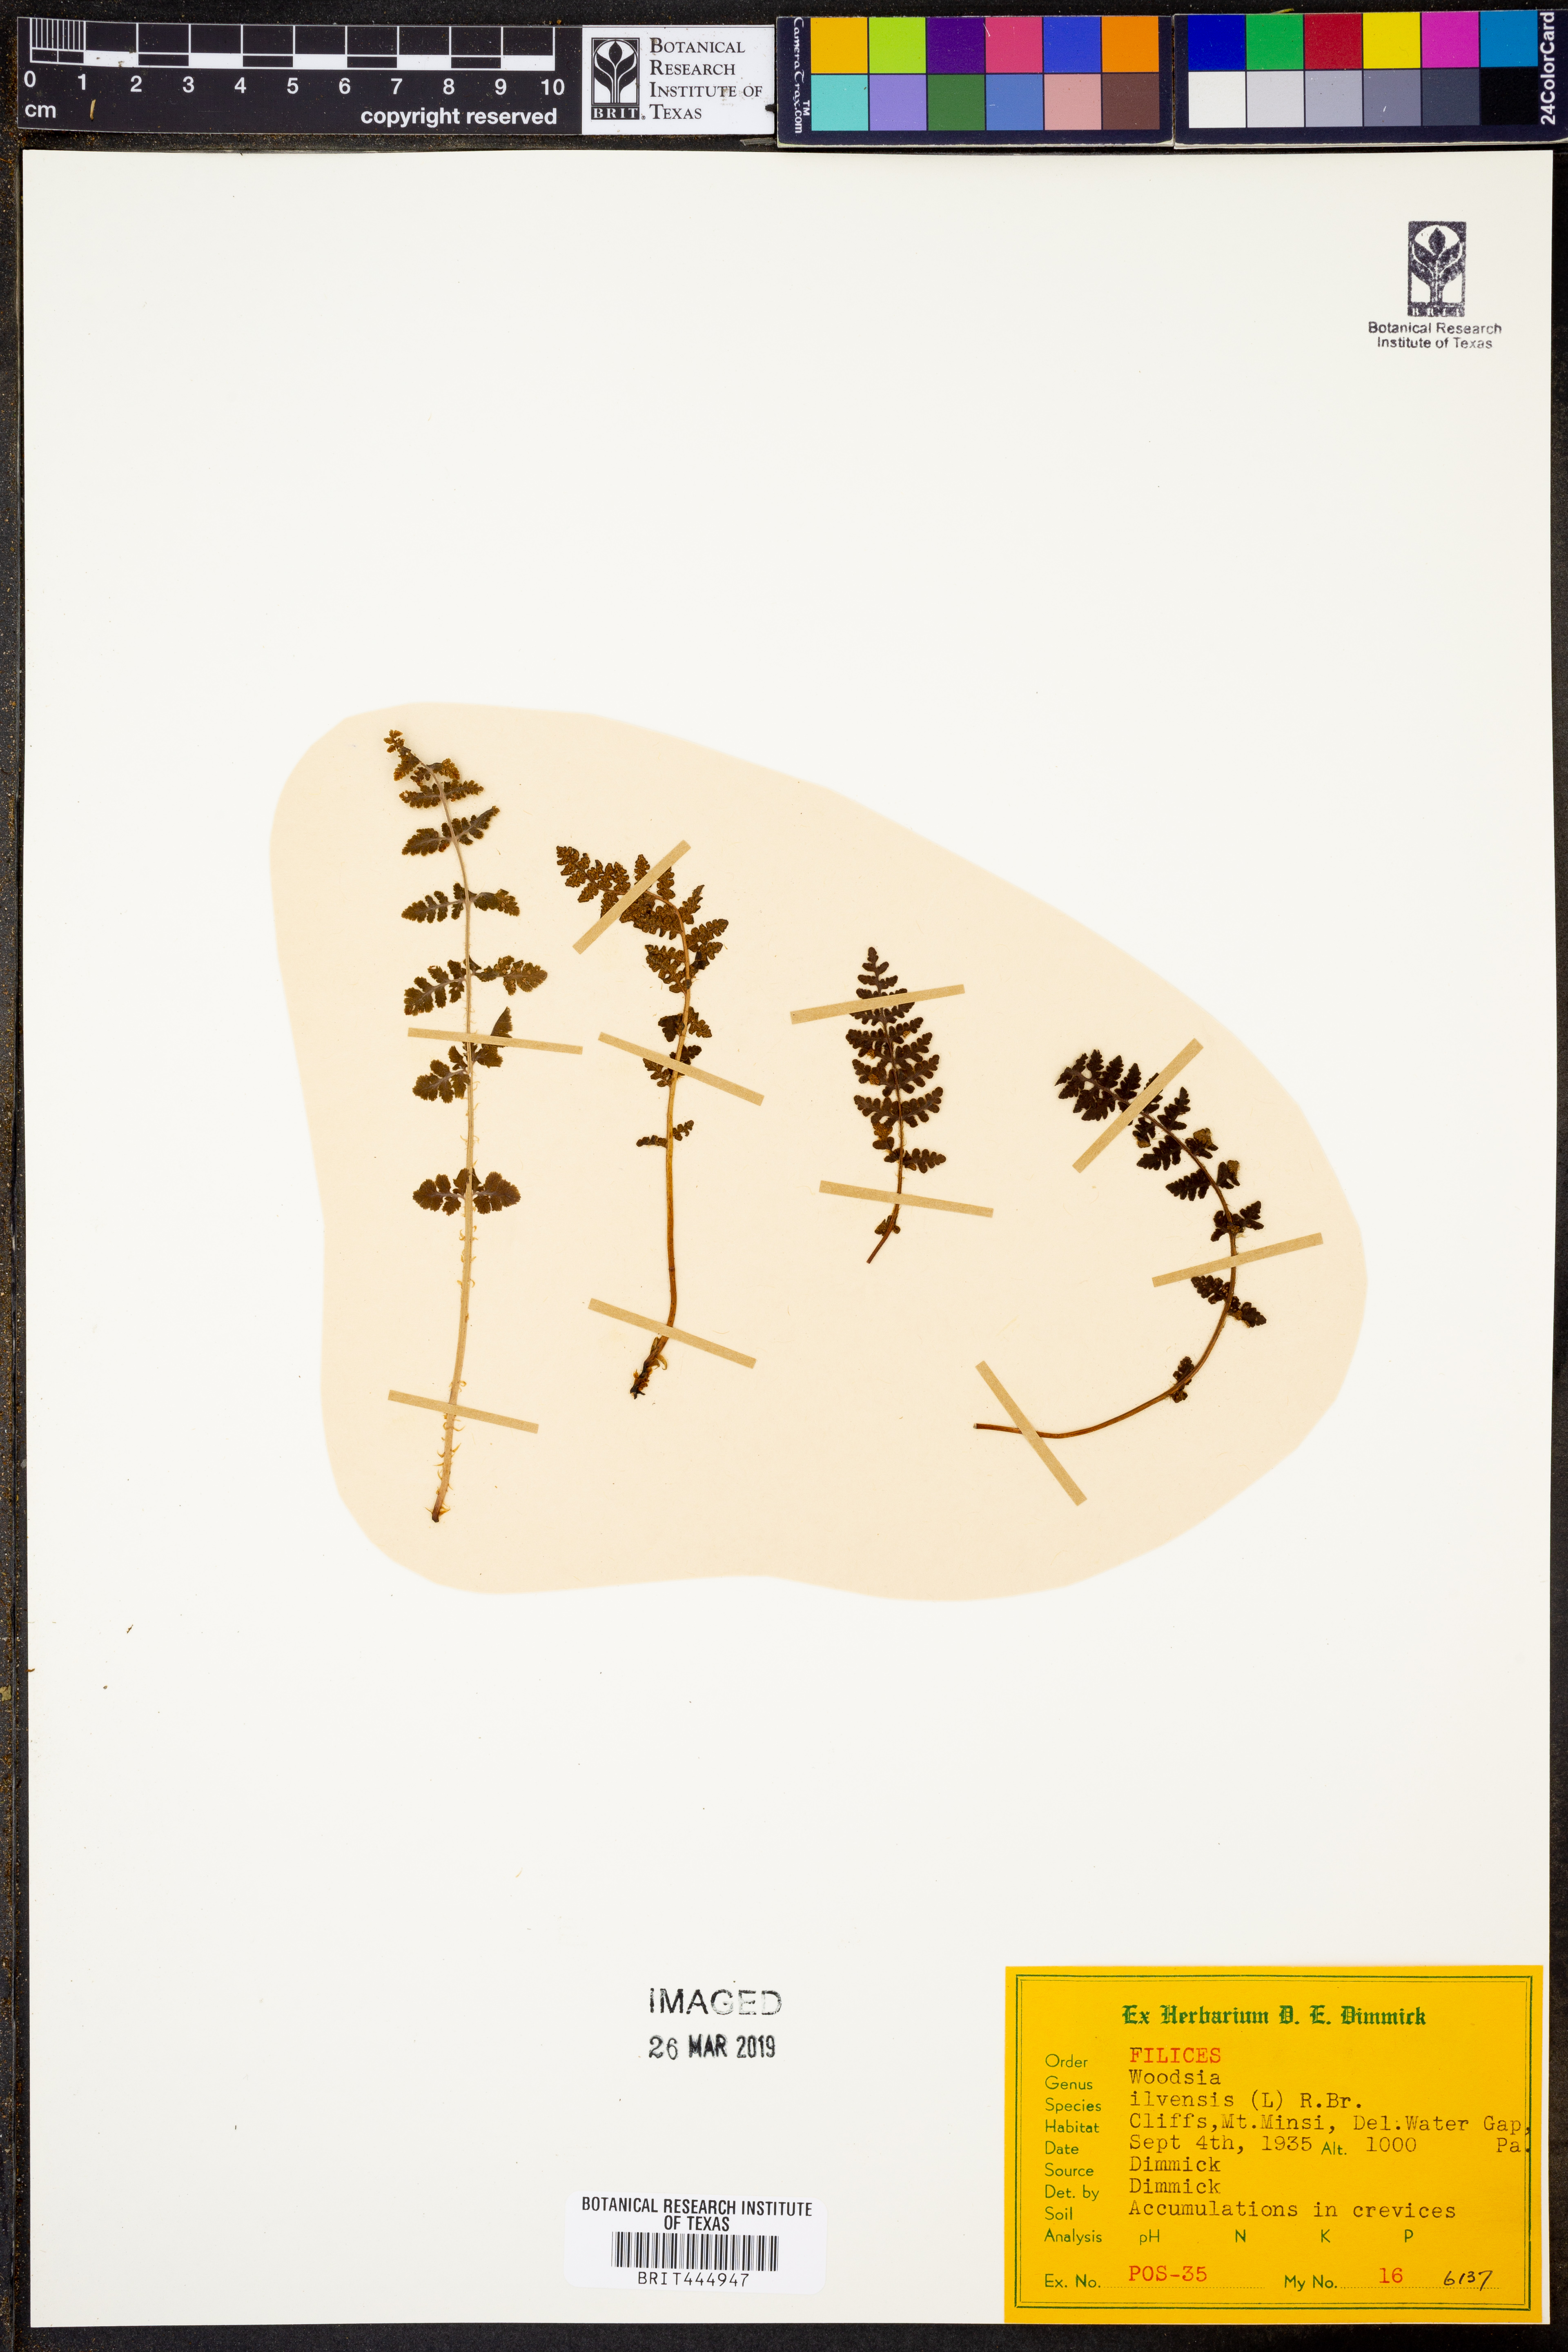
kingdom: Plantae
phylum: Tracheophyta
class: Polypodiopsida
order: Polypodiales
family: Woodsiaceae
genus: Woodsia
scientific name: Woodsia ilvensis
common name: Fragrant woodsia
